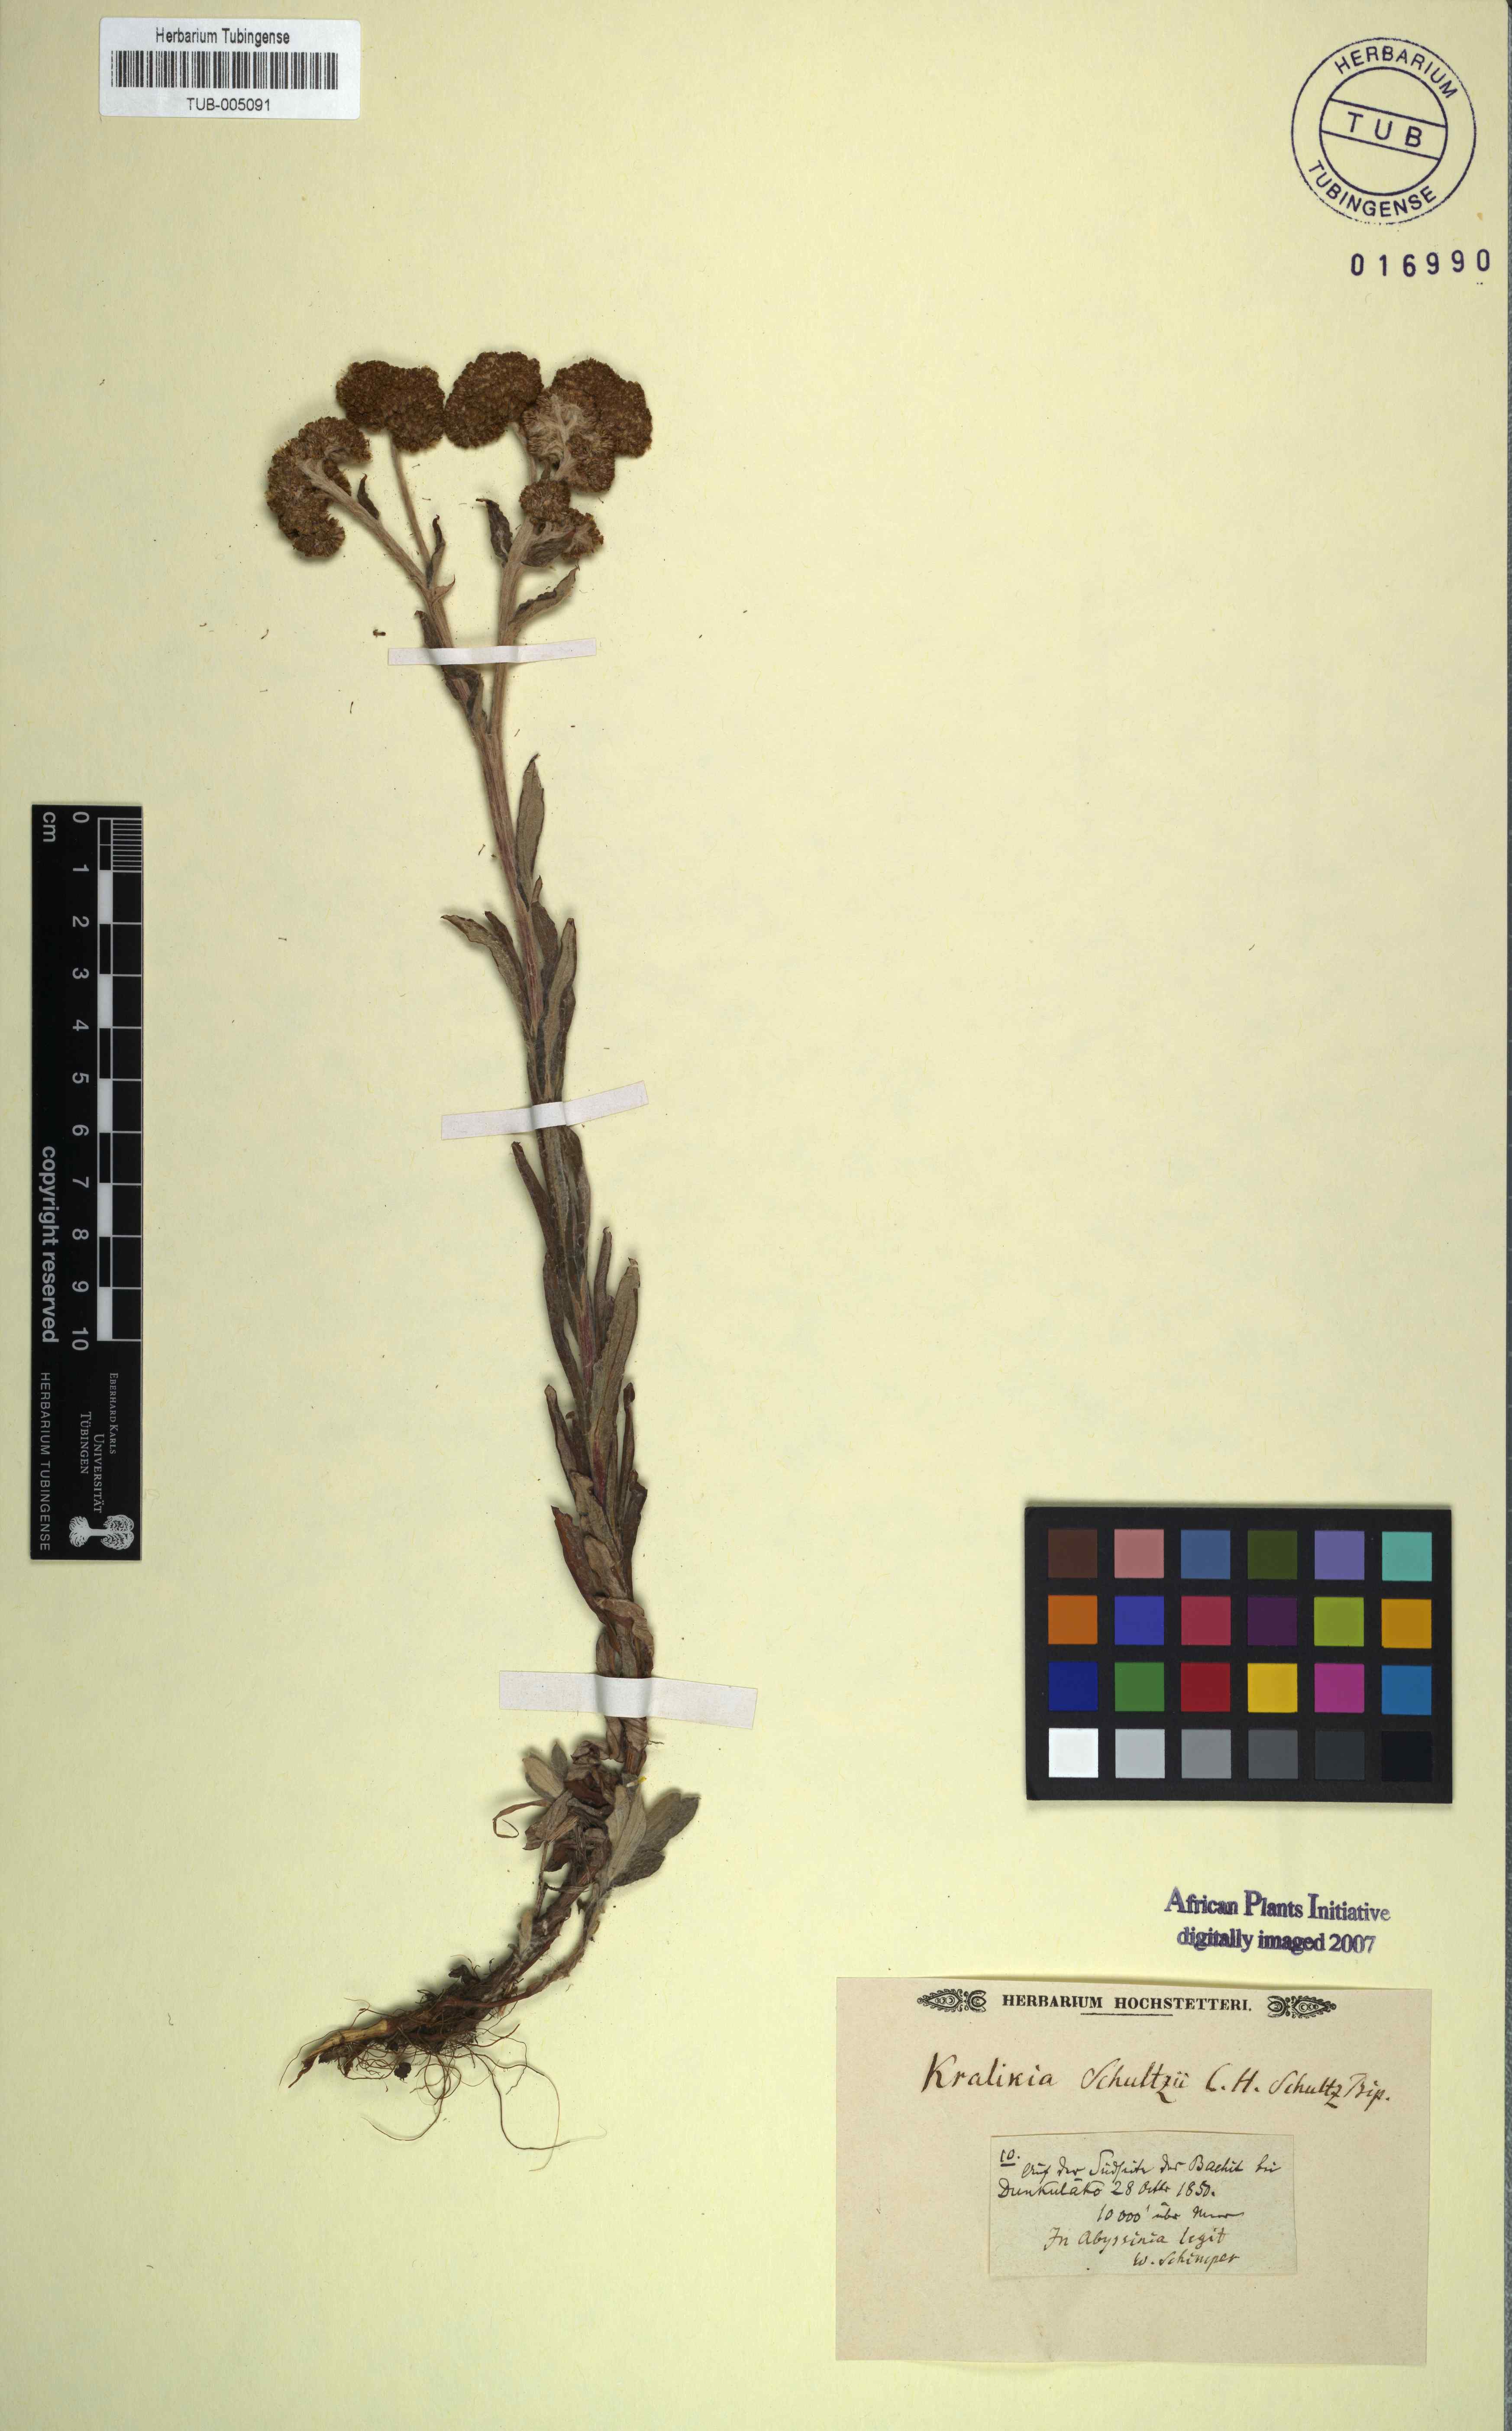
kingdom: Plantae
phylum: Tracheophyta
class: Magnoliopsida
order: Asterales
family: Asteraceae
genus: Chiliocephalum
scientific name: Chiliocephalum schimperi
